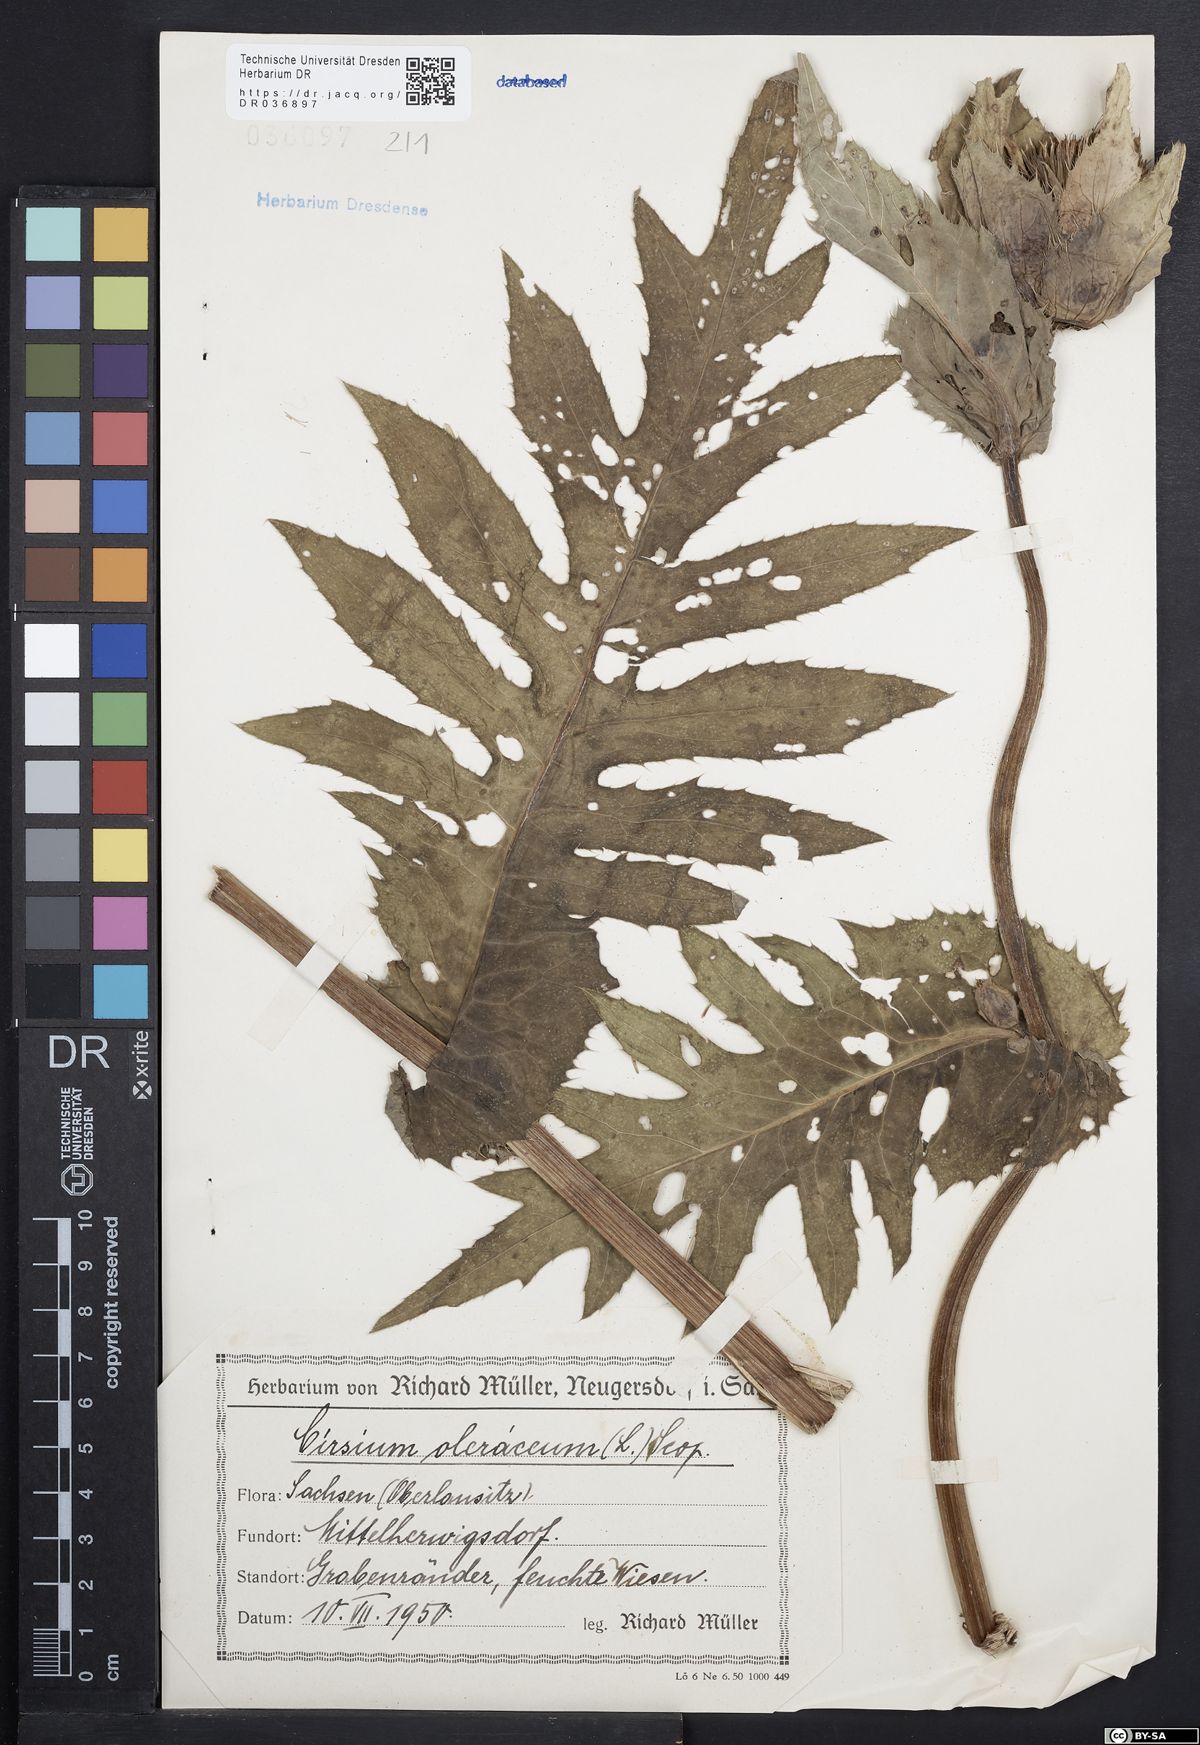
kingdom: Plantae
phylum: Tracheophyta
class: Magnoliopsida
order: Asterales
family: Asteraceae
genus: Cirsium
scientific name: Cirsium oleraceum
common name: Cabbage thistle
